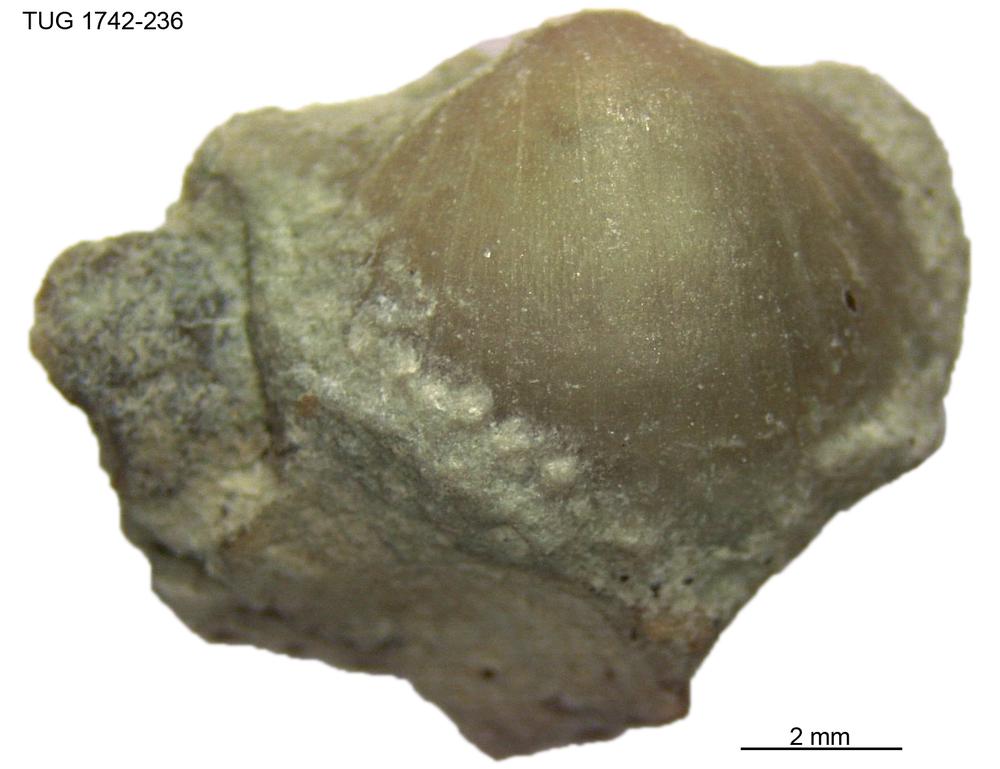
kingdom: Animalia
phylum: Brachiopoda
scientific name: Brachiopoda
